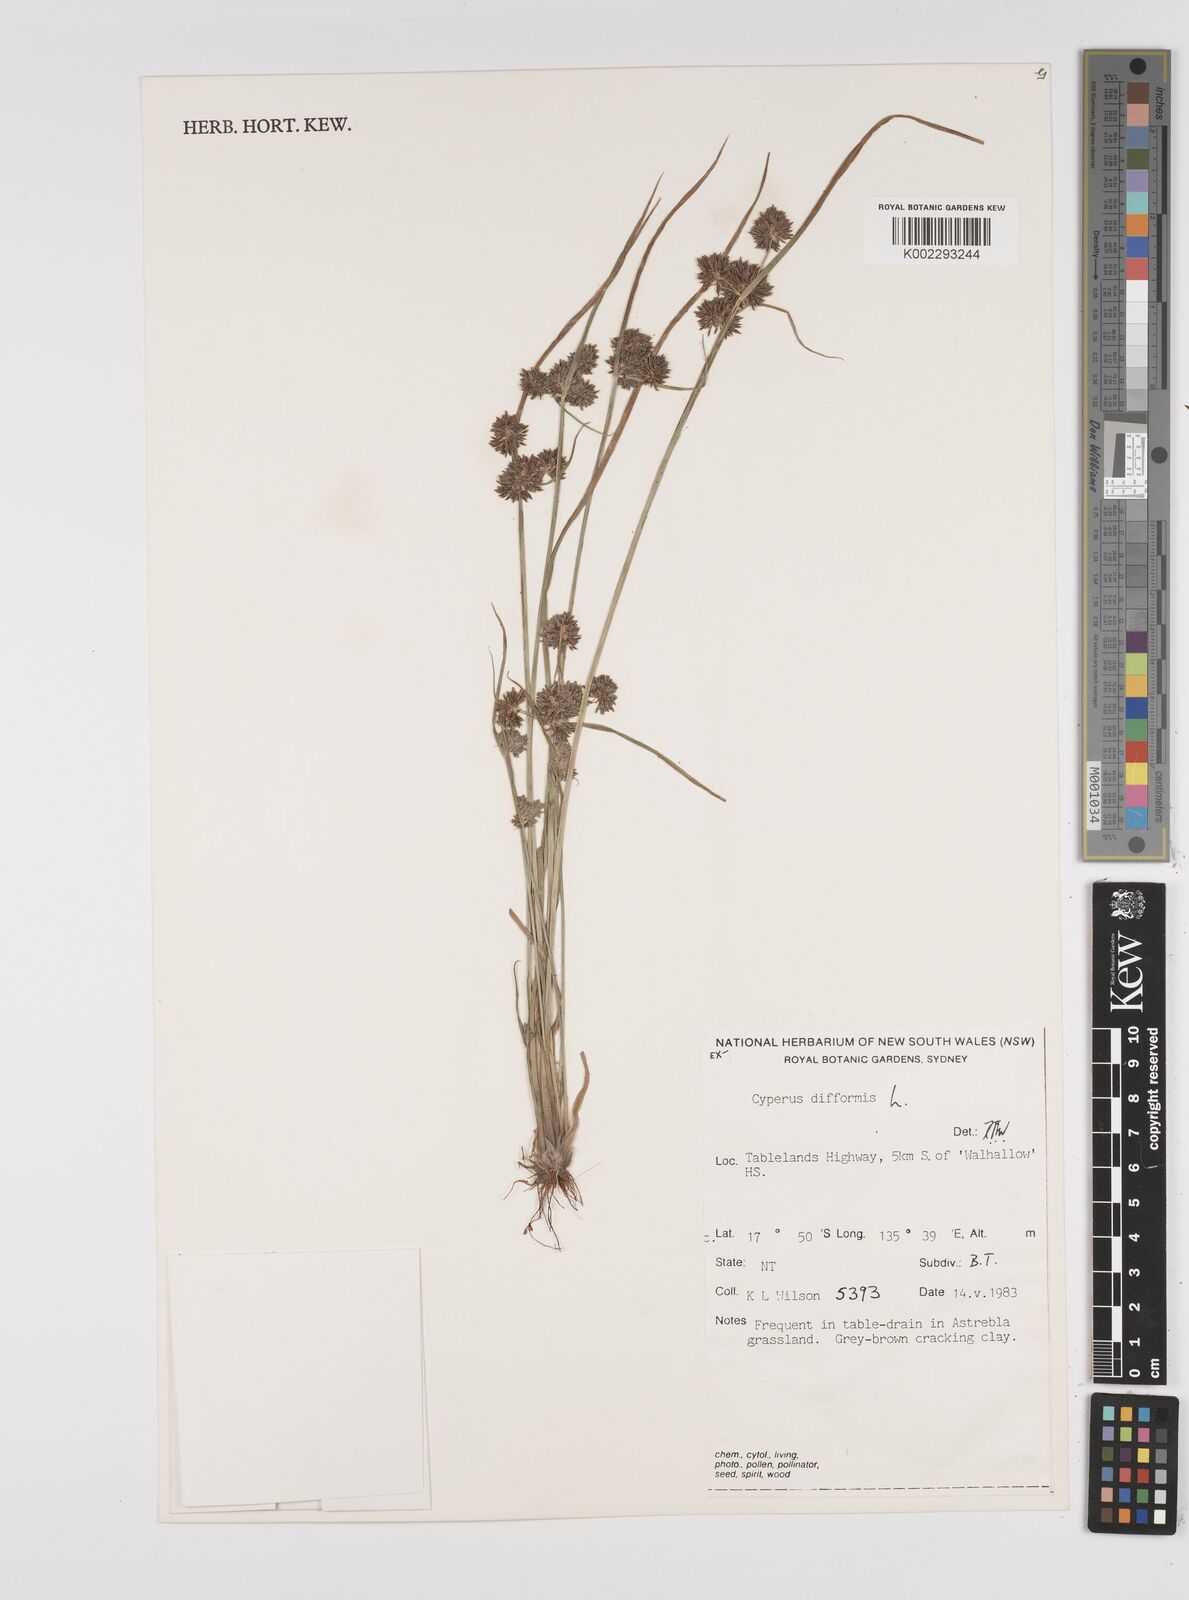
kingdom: Plantae
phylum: Tracheophyta
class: Liliopsida
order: Poales
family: Cyperaceae
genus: Cyperus
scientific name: Cyperus difformis
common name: Variable flatsedge
